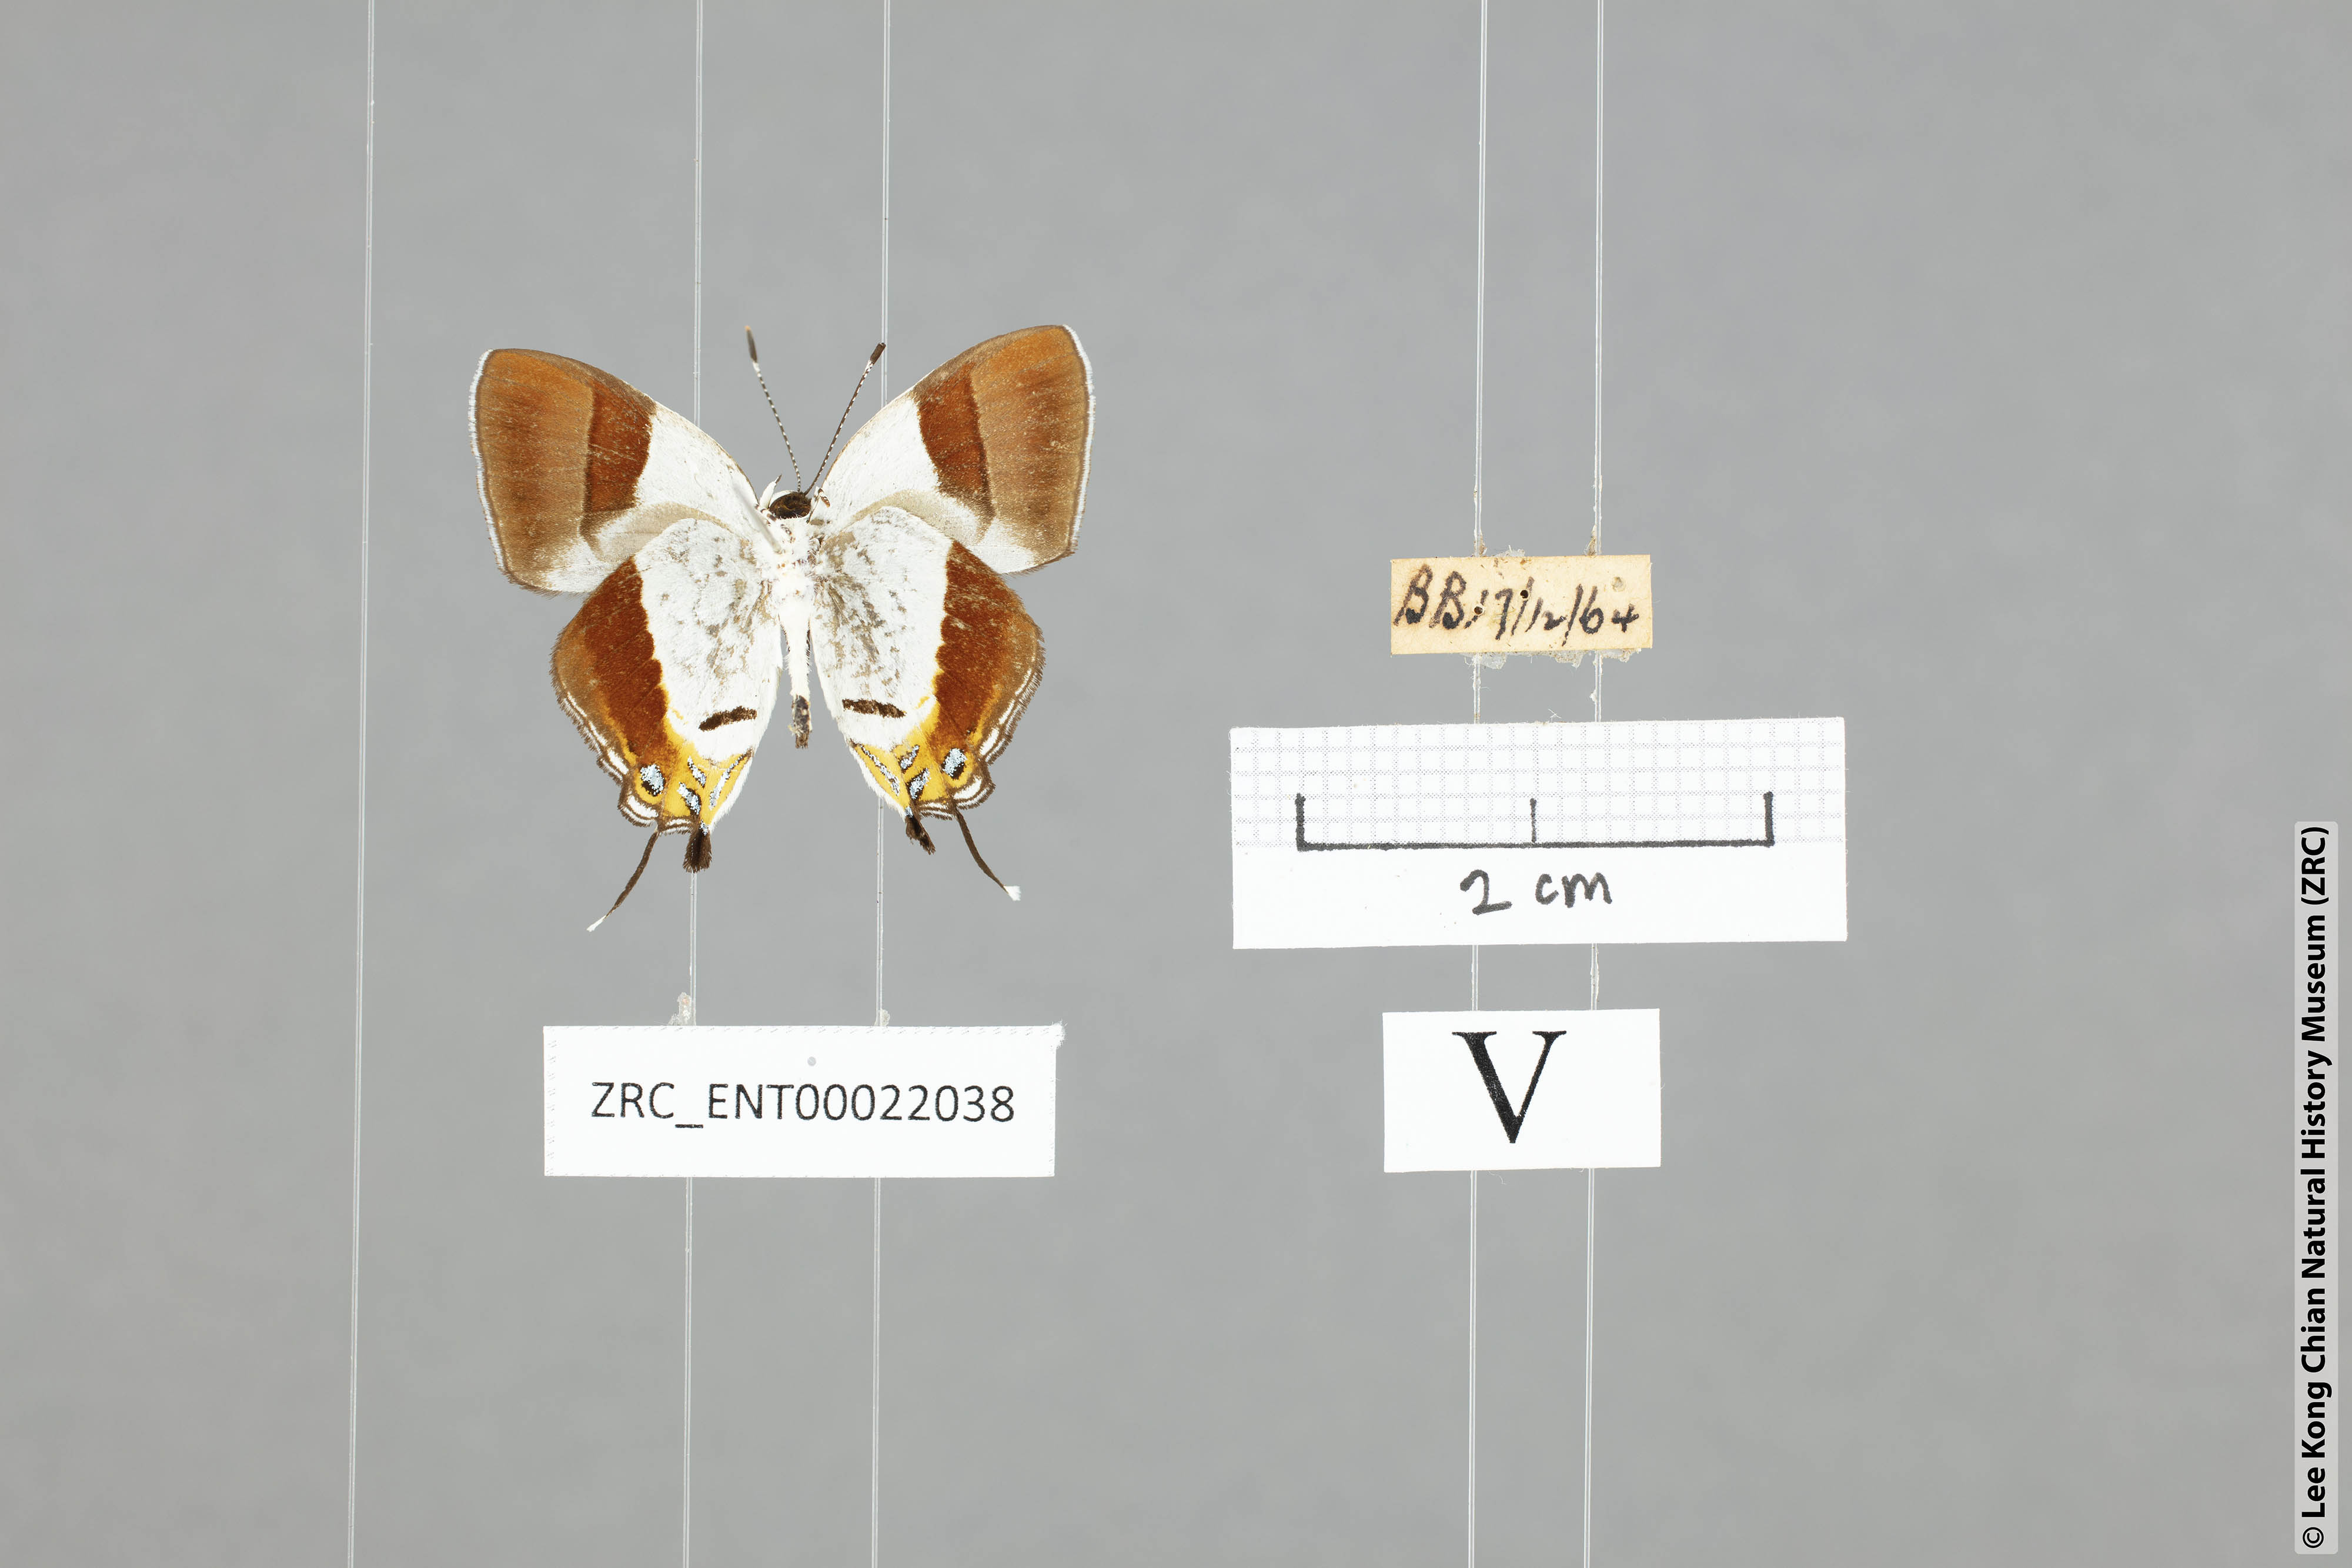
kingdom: Animalia
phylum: Arthropoda
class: Insecta
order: Lepidoptera
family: Lycaenidae
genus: Sithon
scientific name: Sithon nedymond
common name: Plush
